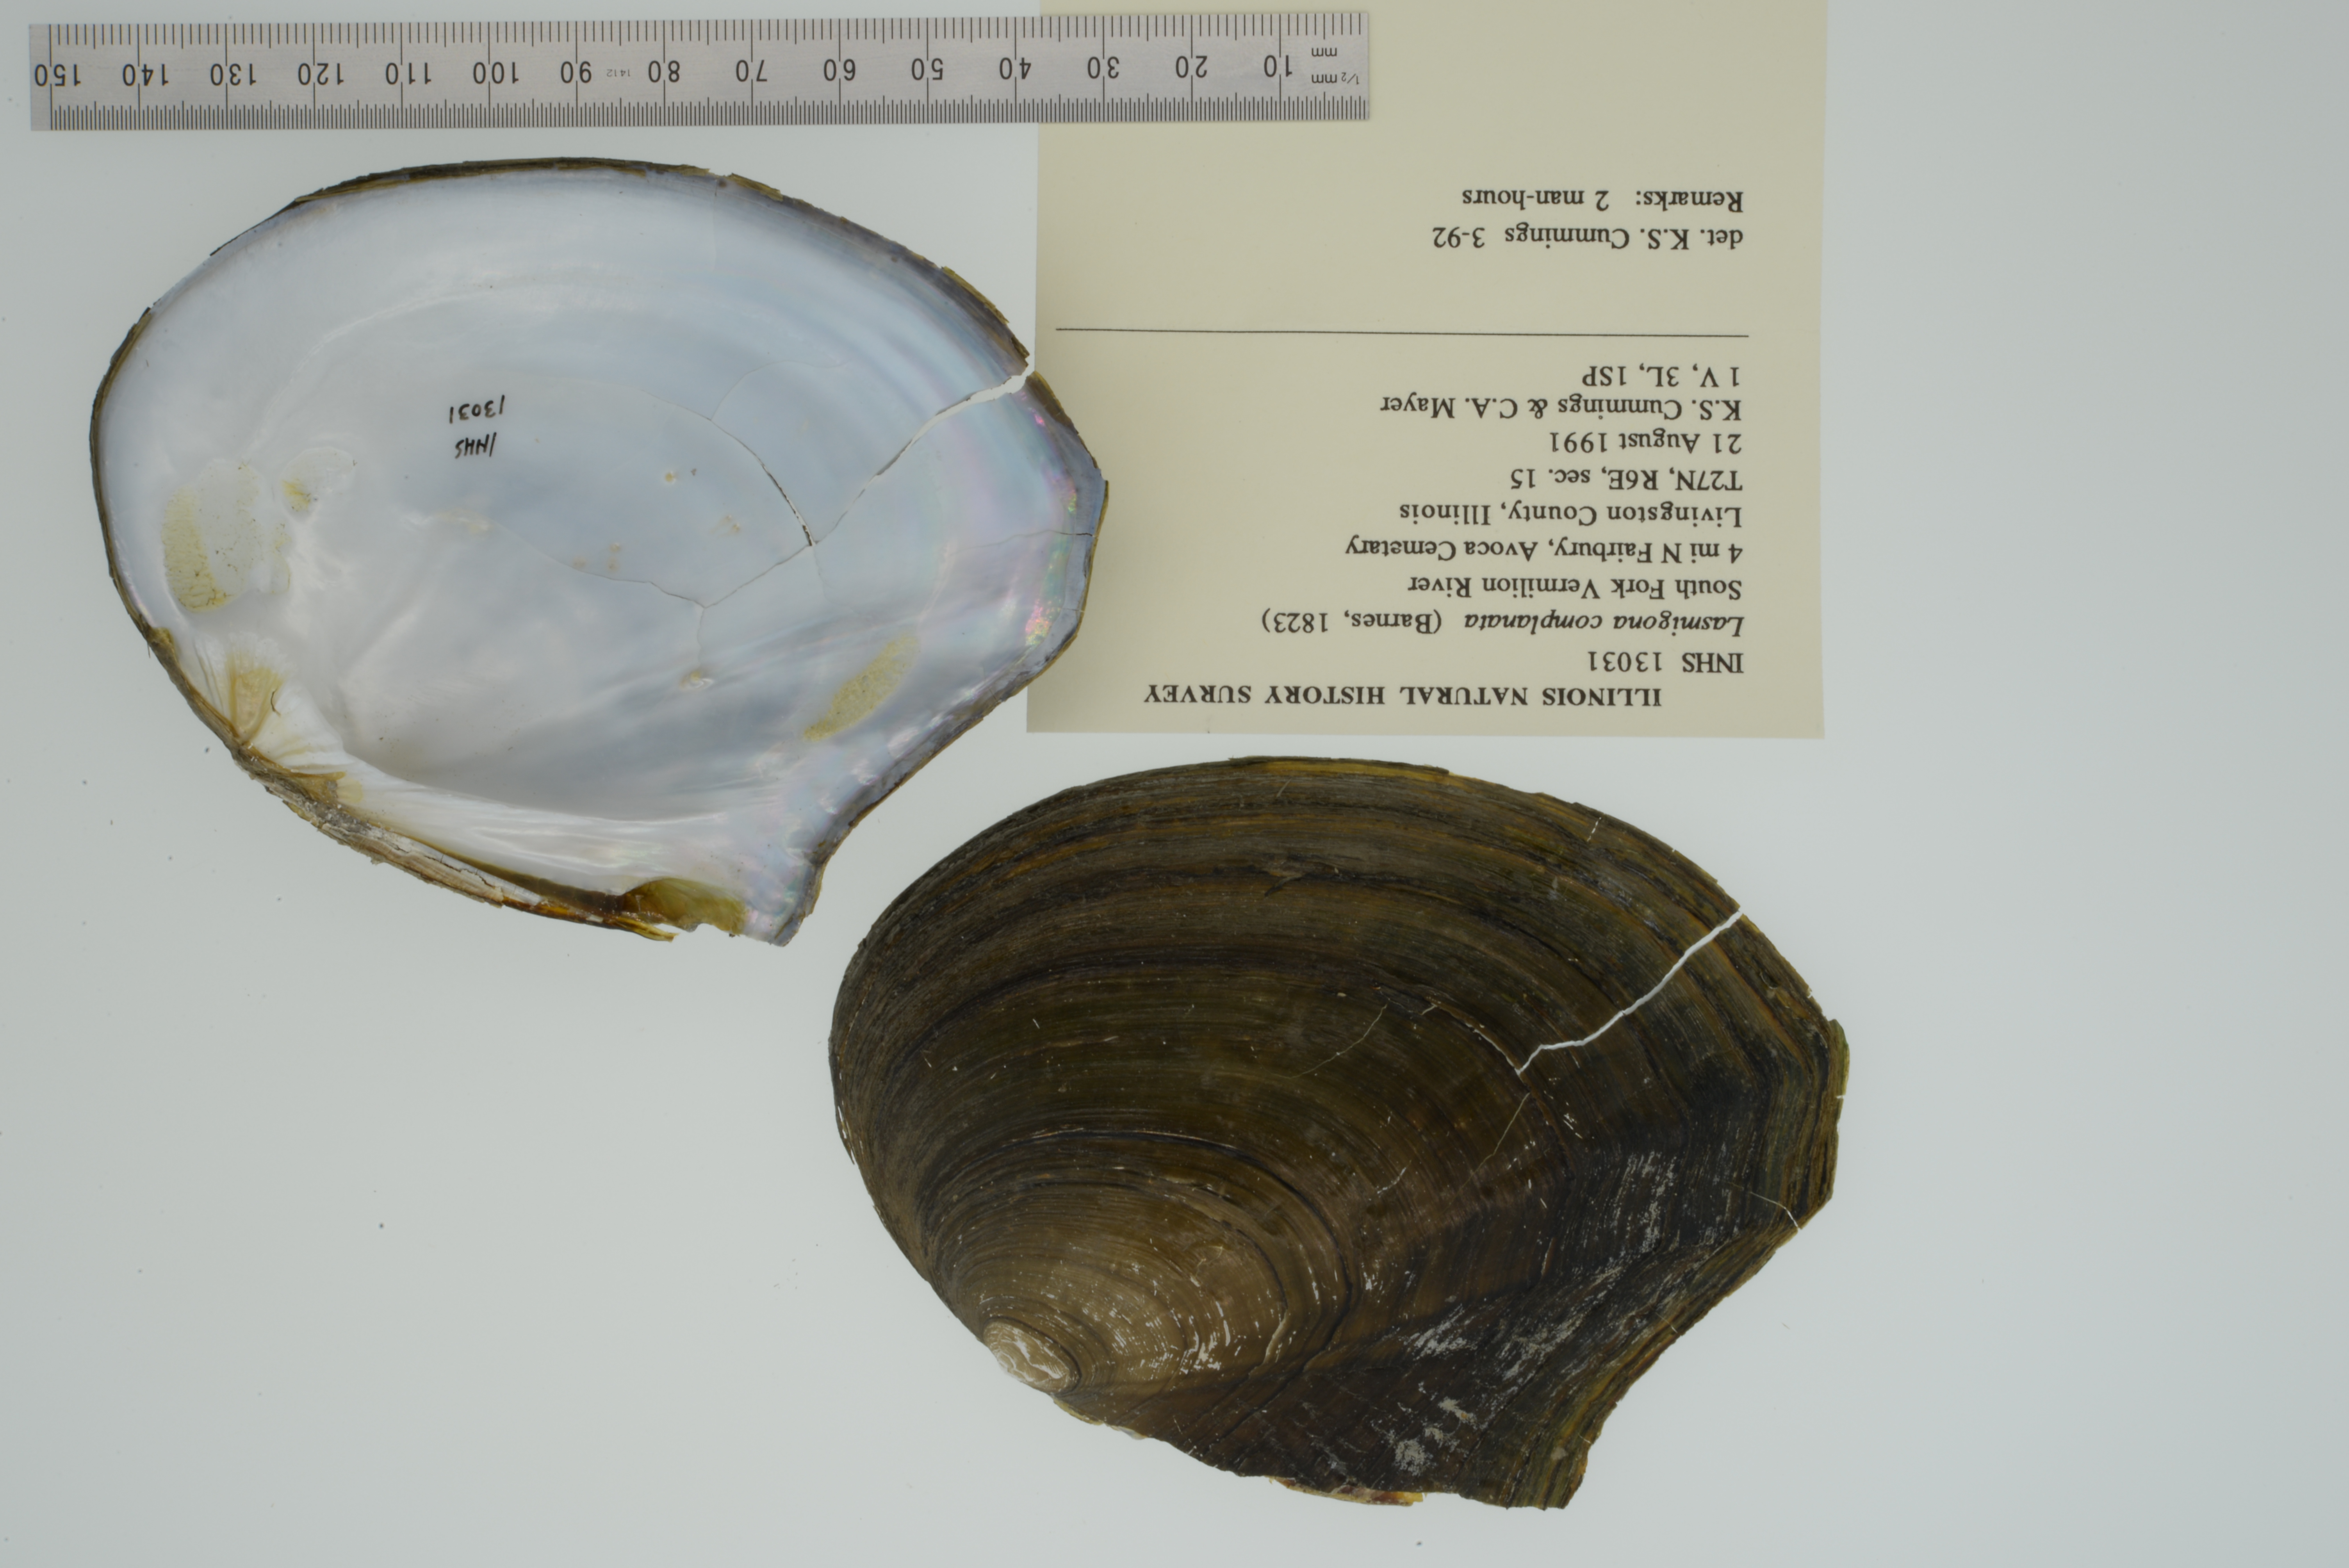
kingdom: Animalia
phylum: Mollusca
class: Bivalvia
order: Unionida
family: Unionidae
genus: Lasmigona
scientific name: Lasmigona complanata
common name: White heelsplitter
